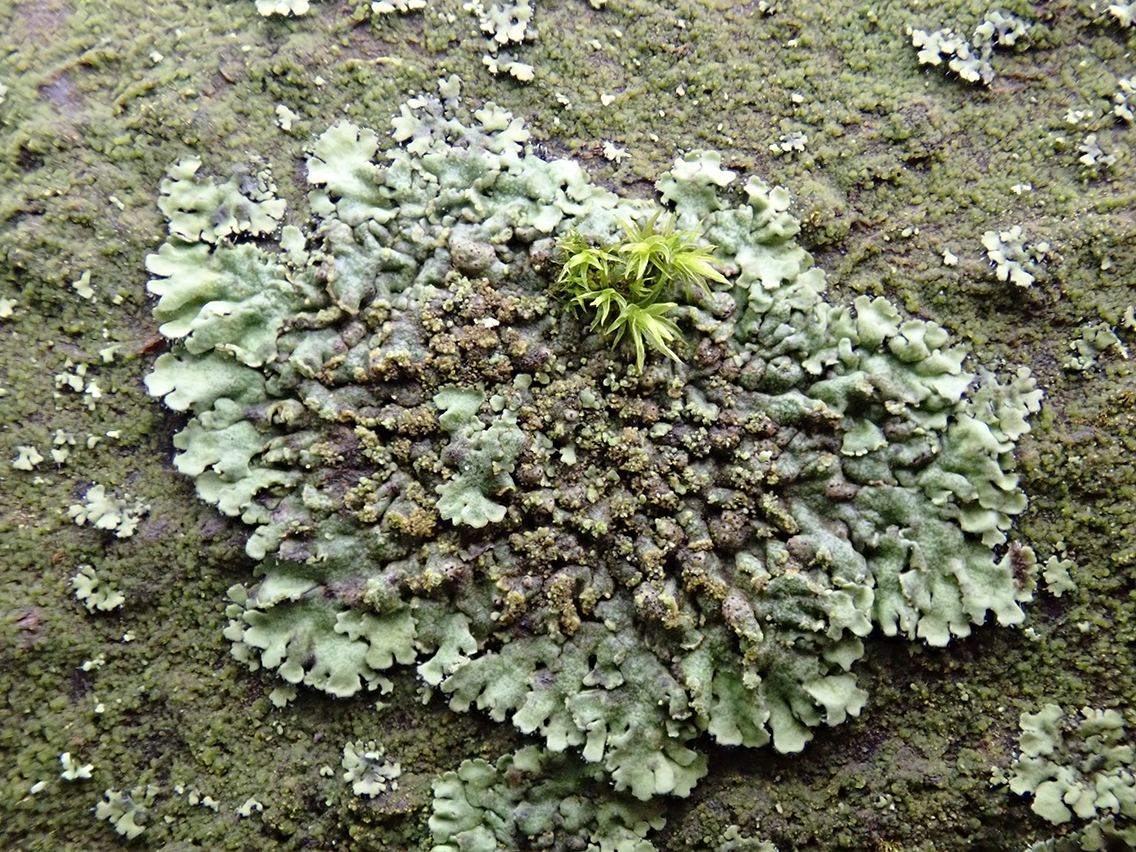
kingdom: Fungi
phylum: Ascomycota
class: Lecanoromycetes
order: Caliciales
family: Physciaceae
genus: Phaeophyscia
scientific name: Phaeophyscia orbicularis
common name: grågrøn rosetlav
